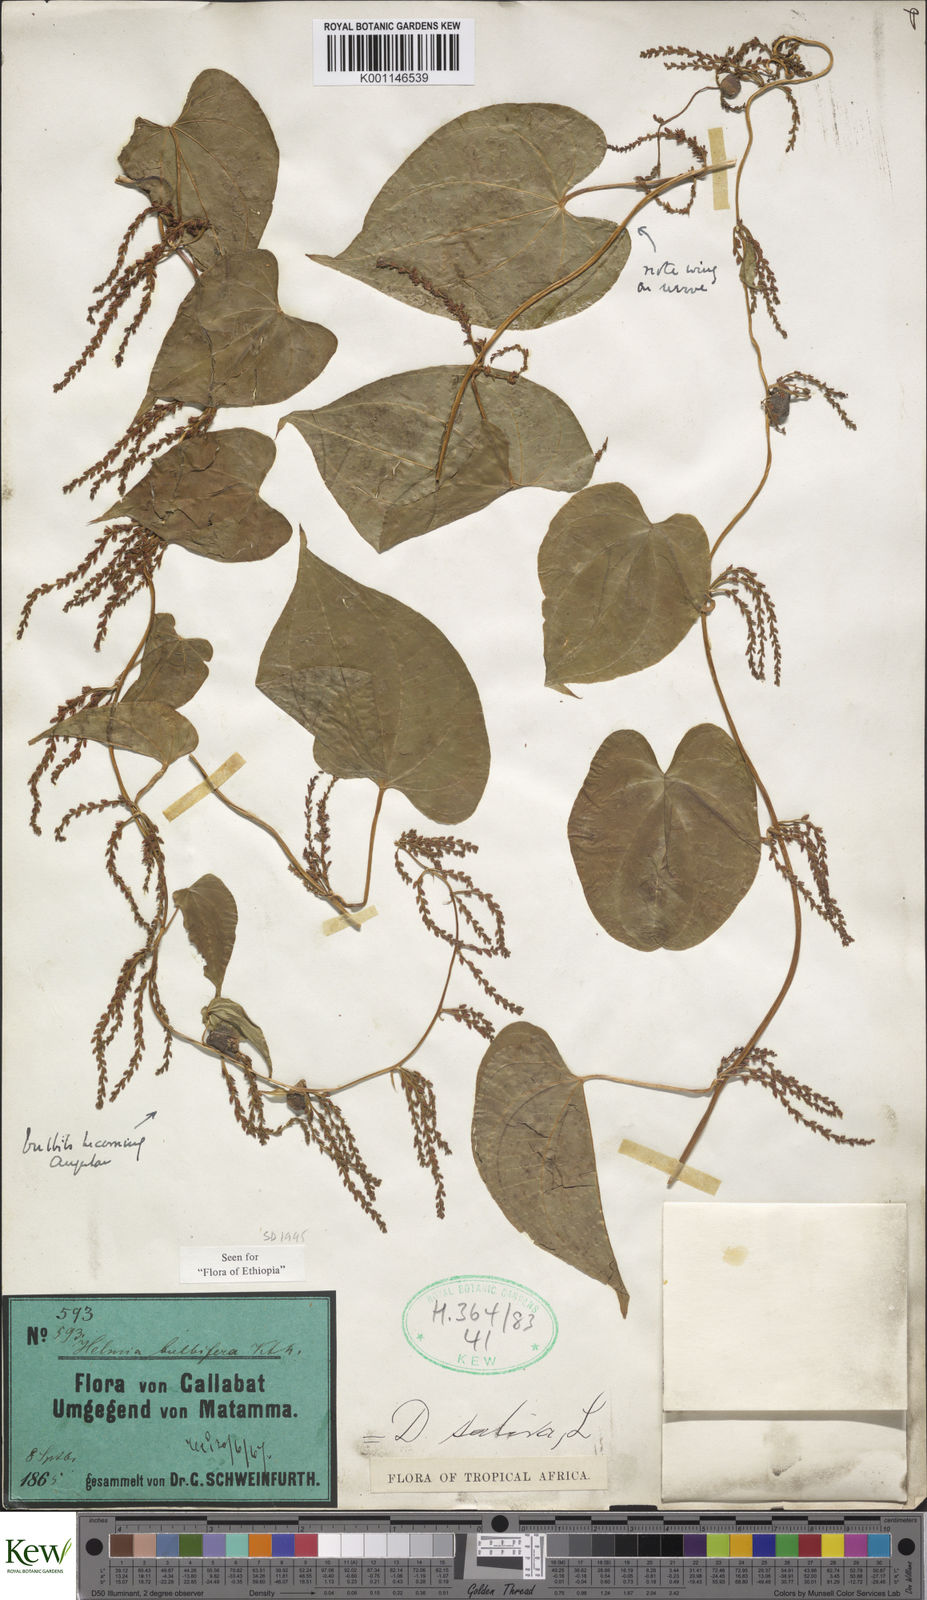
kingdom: Plantae
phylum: Tracheophyta
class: Liliopsida
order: Dioscoreales
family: Dioscoreaceae
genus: Dioscorea
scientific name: Dioscorea bulbifera
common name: Air yam
